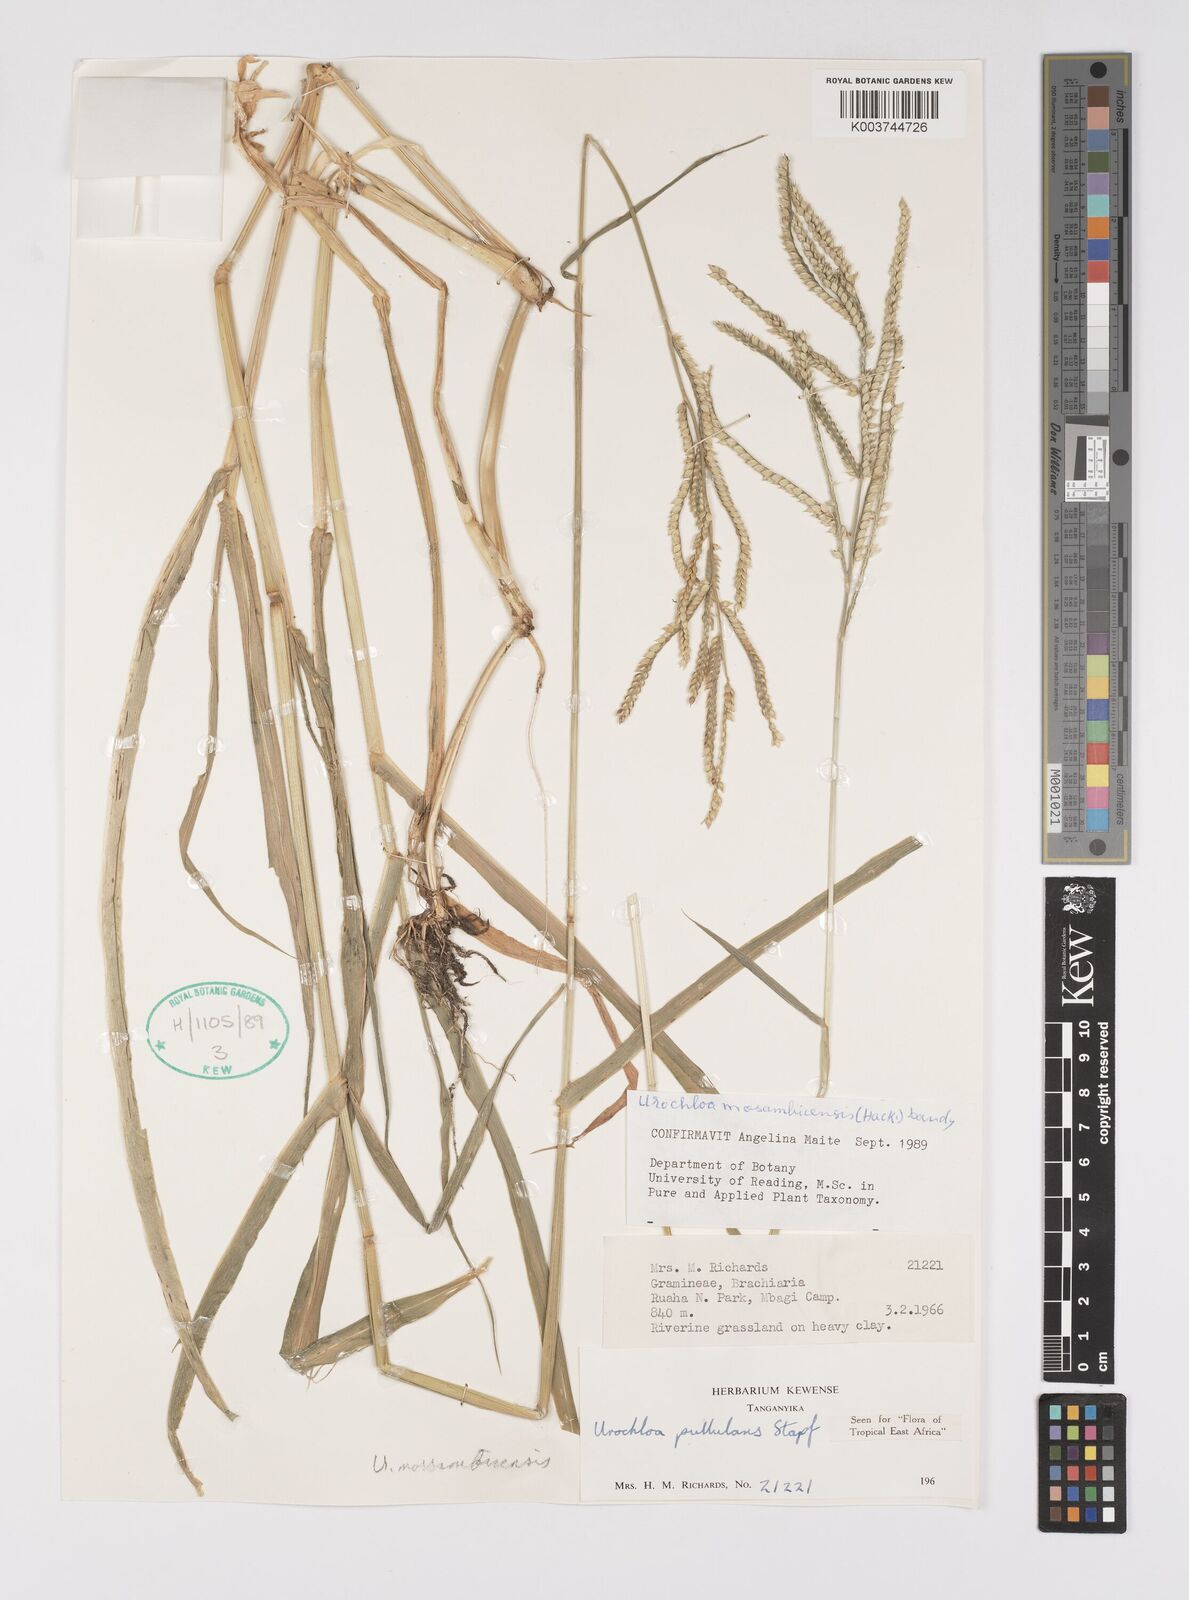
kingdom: Plantae
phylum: Tracheophyta
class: Liliopsida
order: Poales
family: Poaceae
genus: Urochloa
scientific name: Urochloa trichopus
